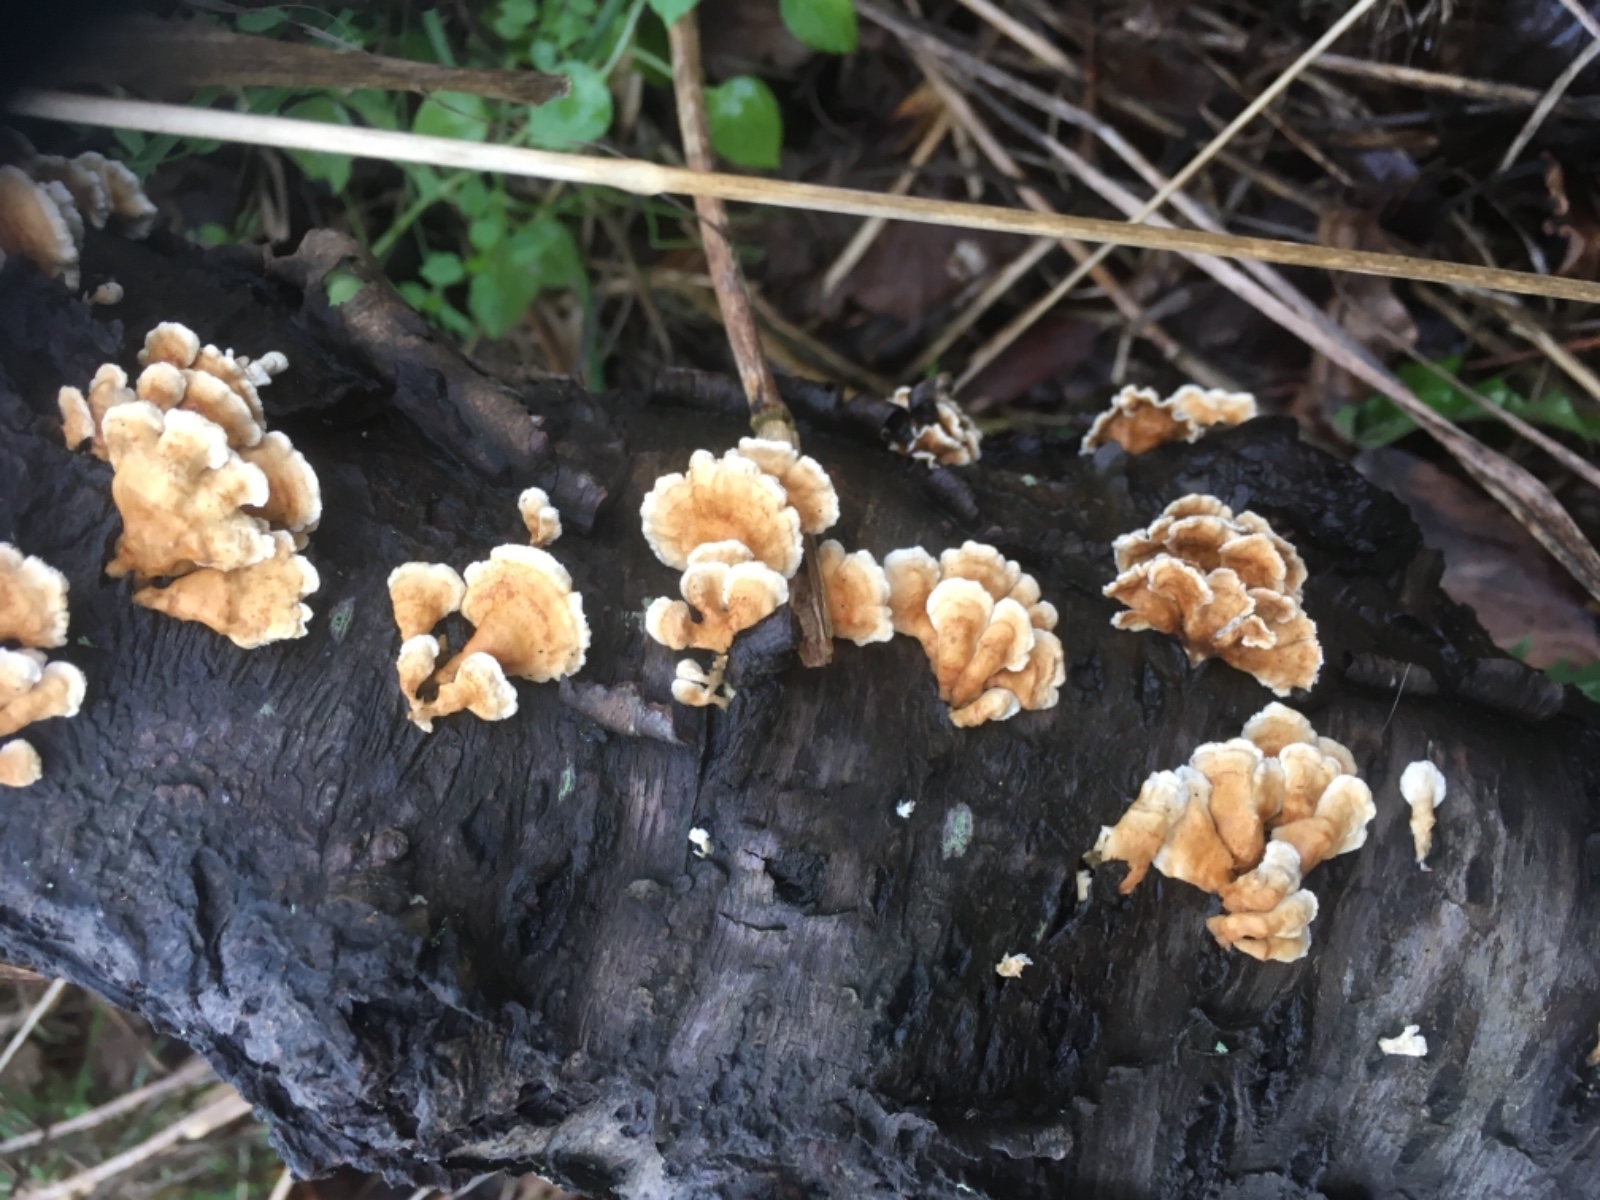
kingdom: Fungi
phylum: Basidiomycota
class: Agaricomycetes
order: Amylocorticiales
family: Amylocorticiaceae
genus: Plicaturopsis
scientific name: Plicaturopsis crispa
